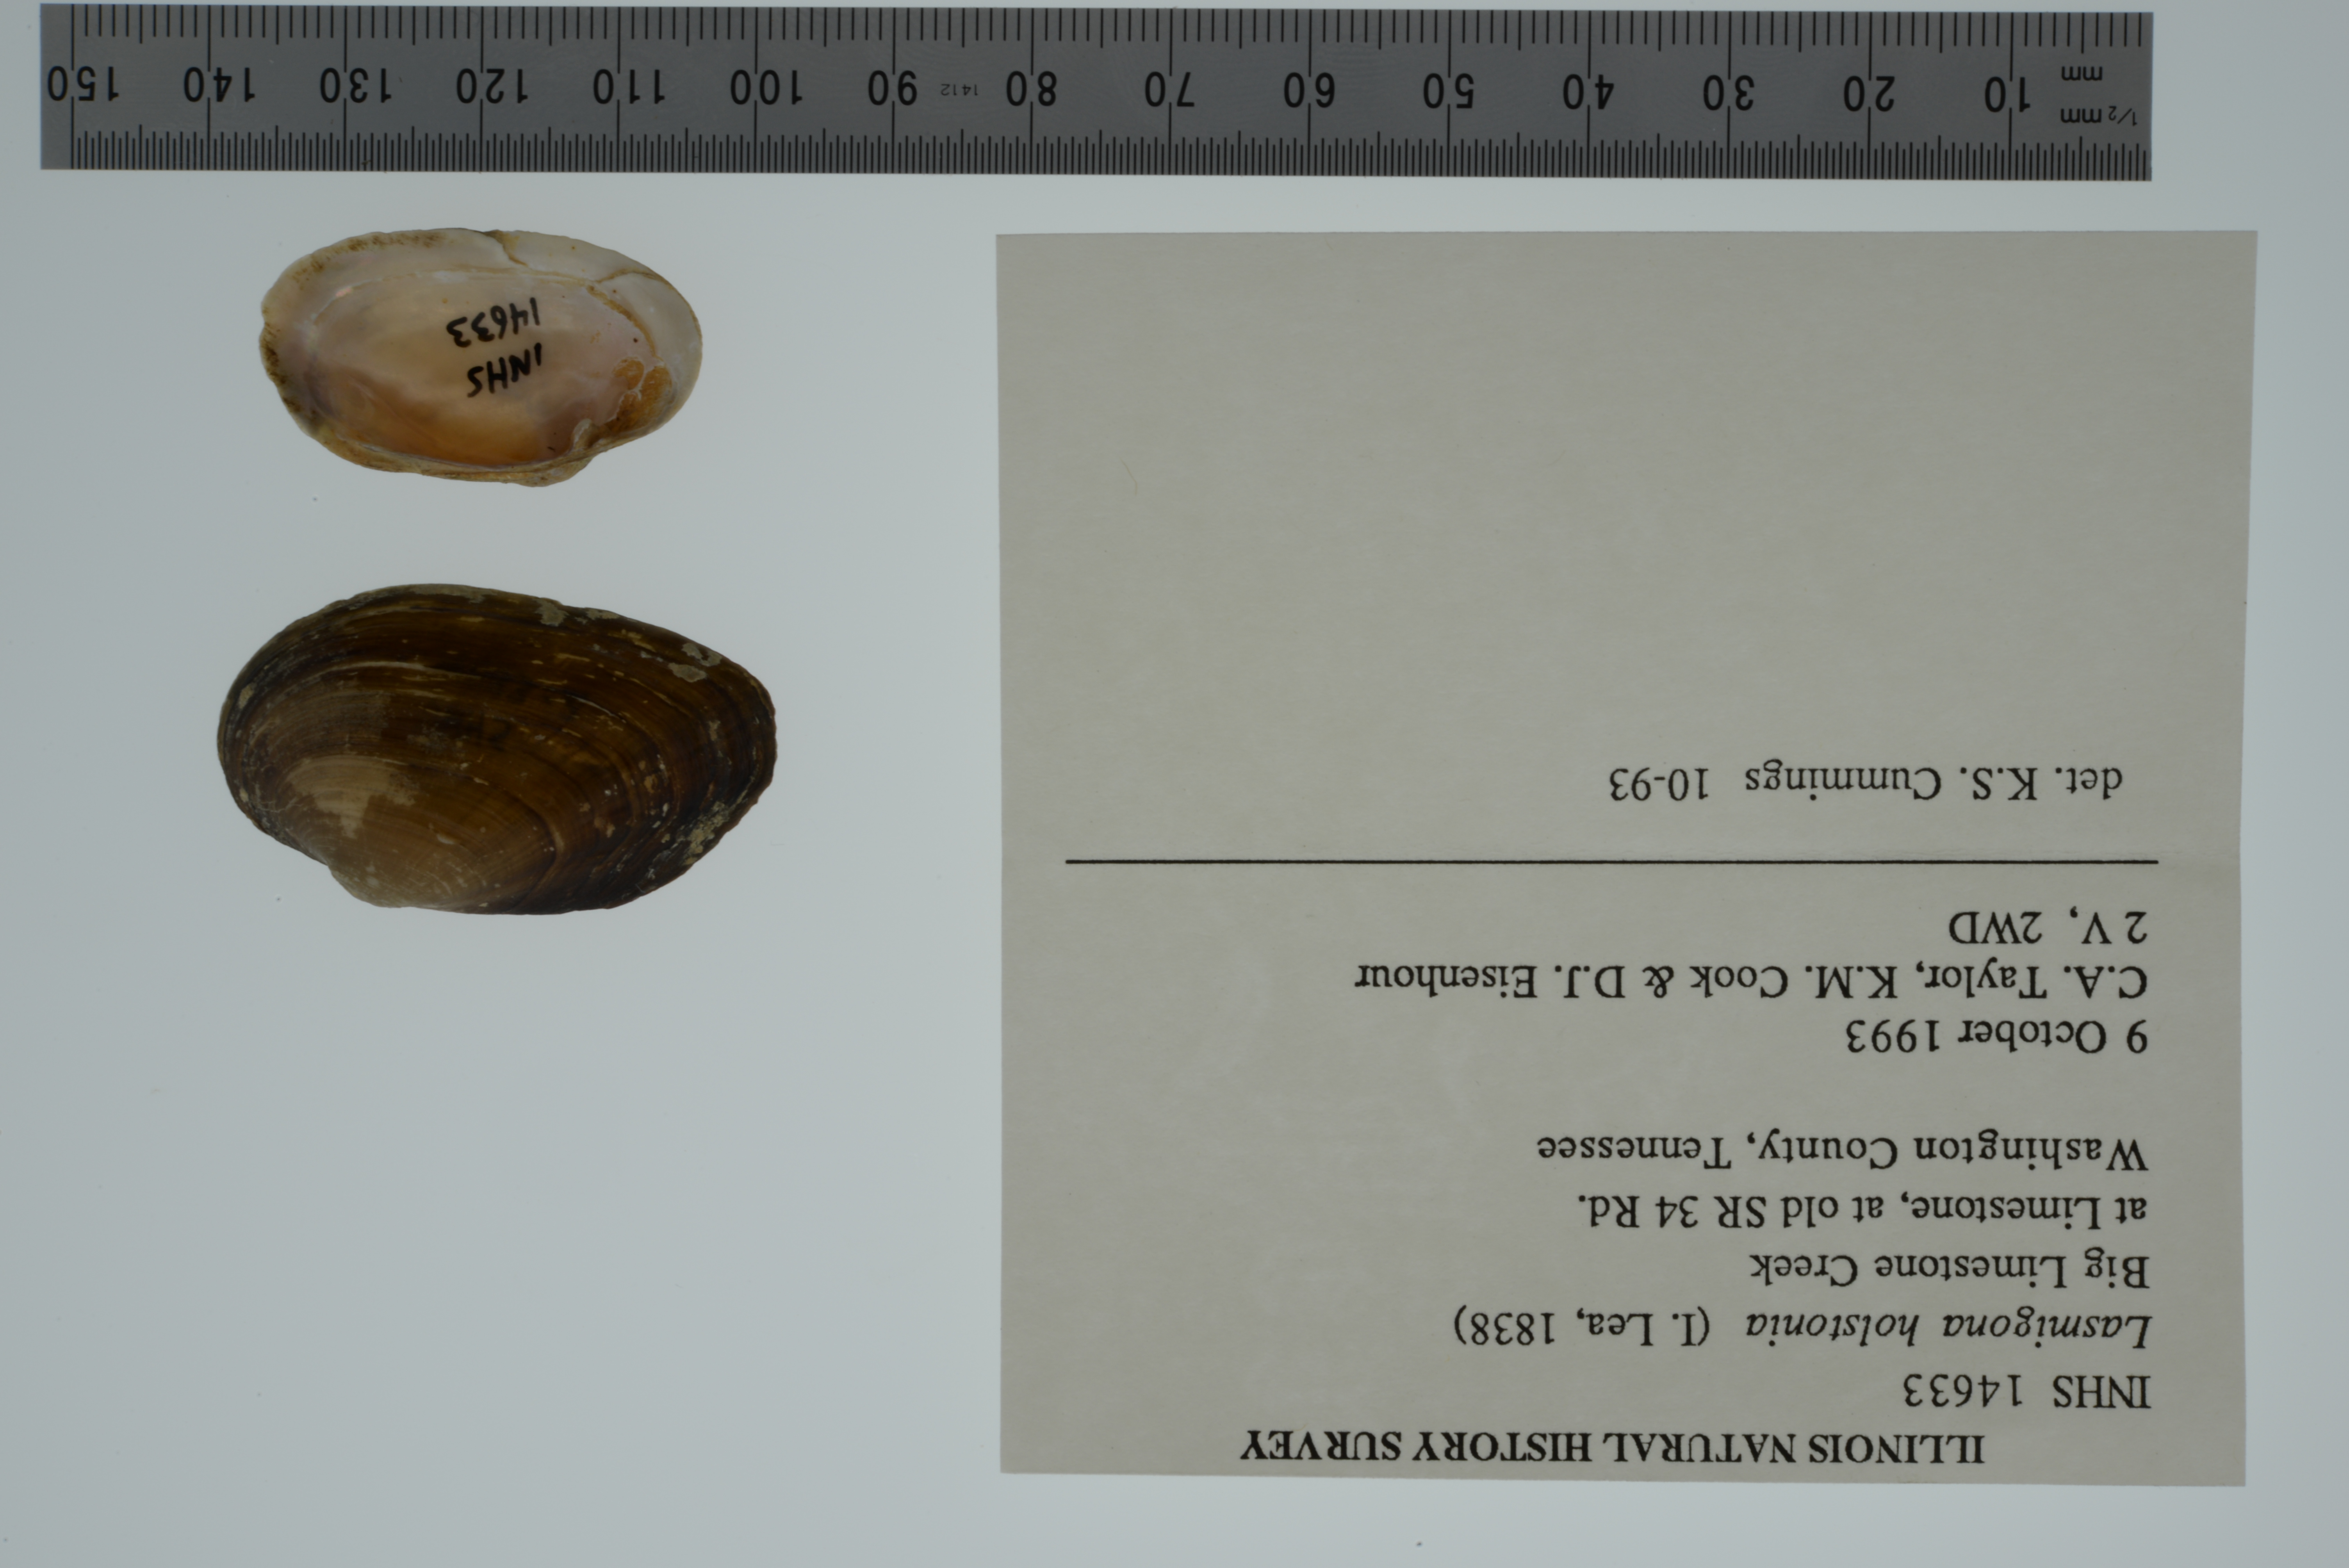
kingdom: Animalia
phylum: Mollusca
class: Bivalvia
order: Unionida
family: Unionidae
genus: Lasmigona
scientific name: Lasmigona holstonia
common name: Tennessee heelsplitter
